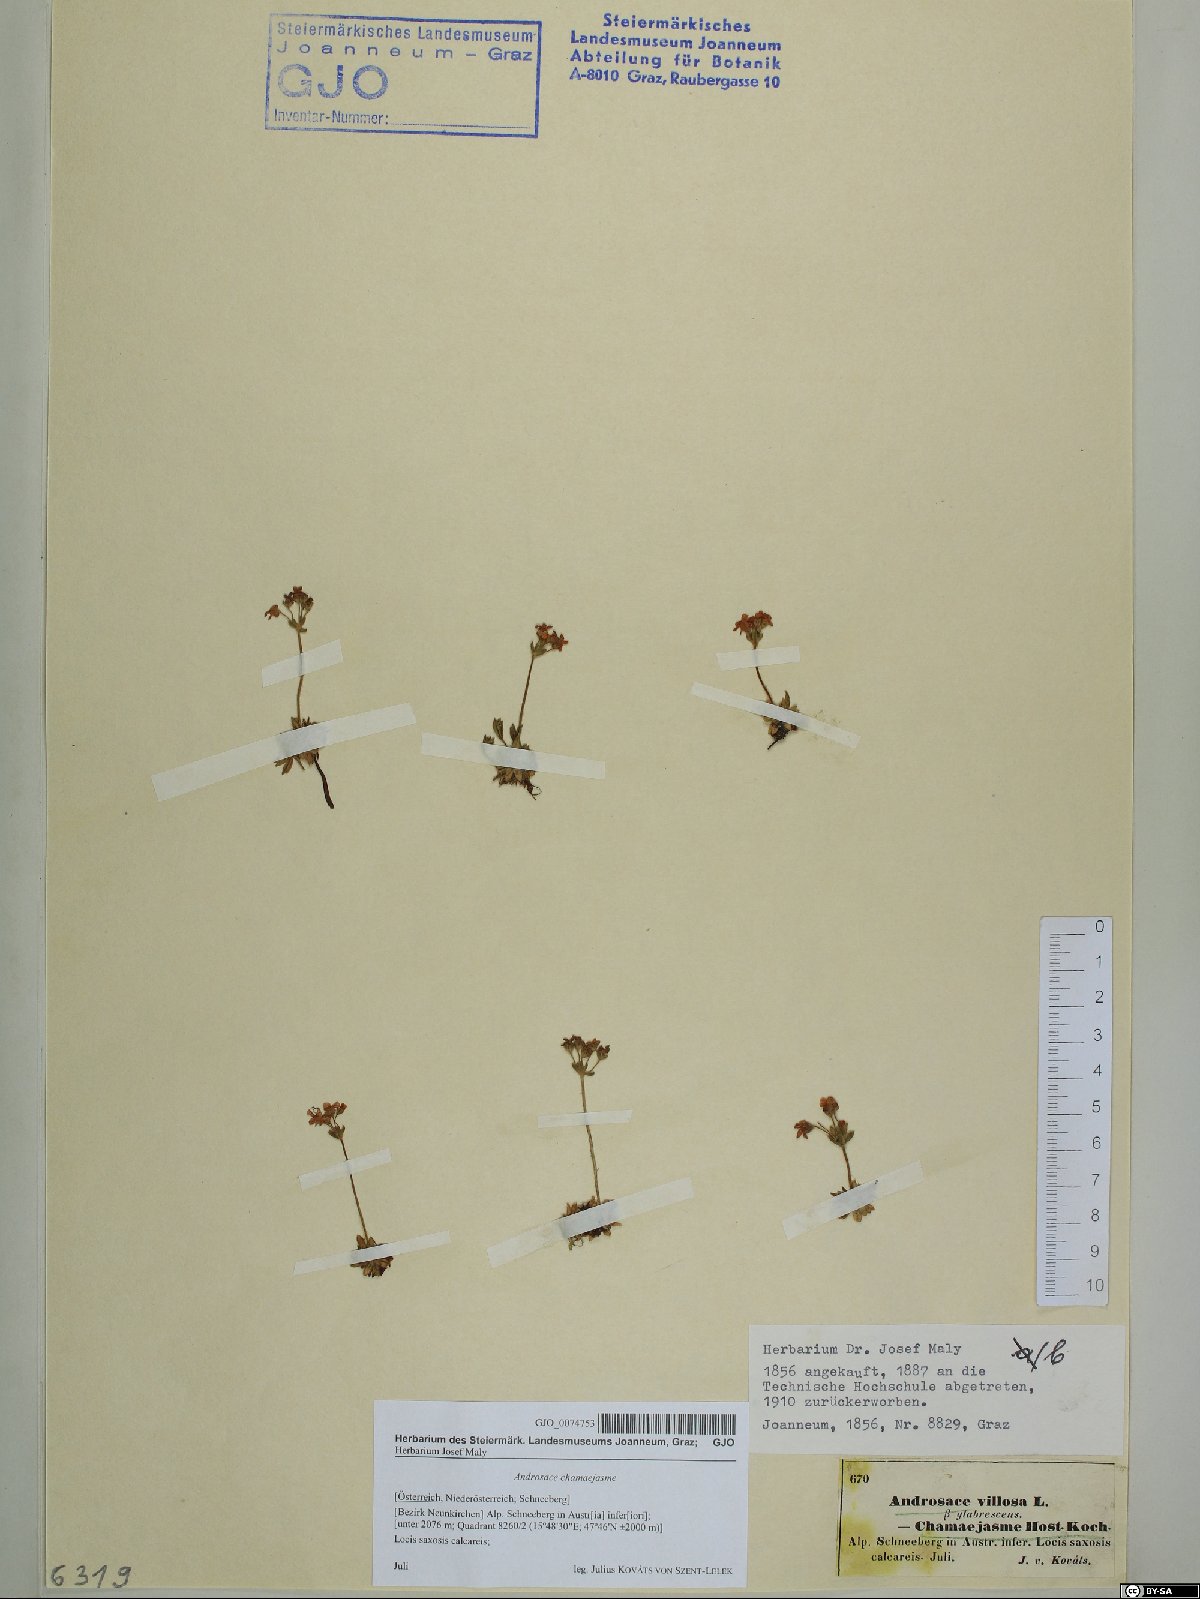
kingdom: Plantae
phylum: Tracheophyta
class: Magnoliopsida
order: Ericales
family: Primulaceae
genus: Androsace
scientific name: Androsace chamaejasme
